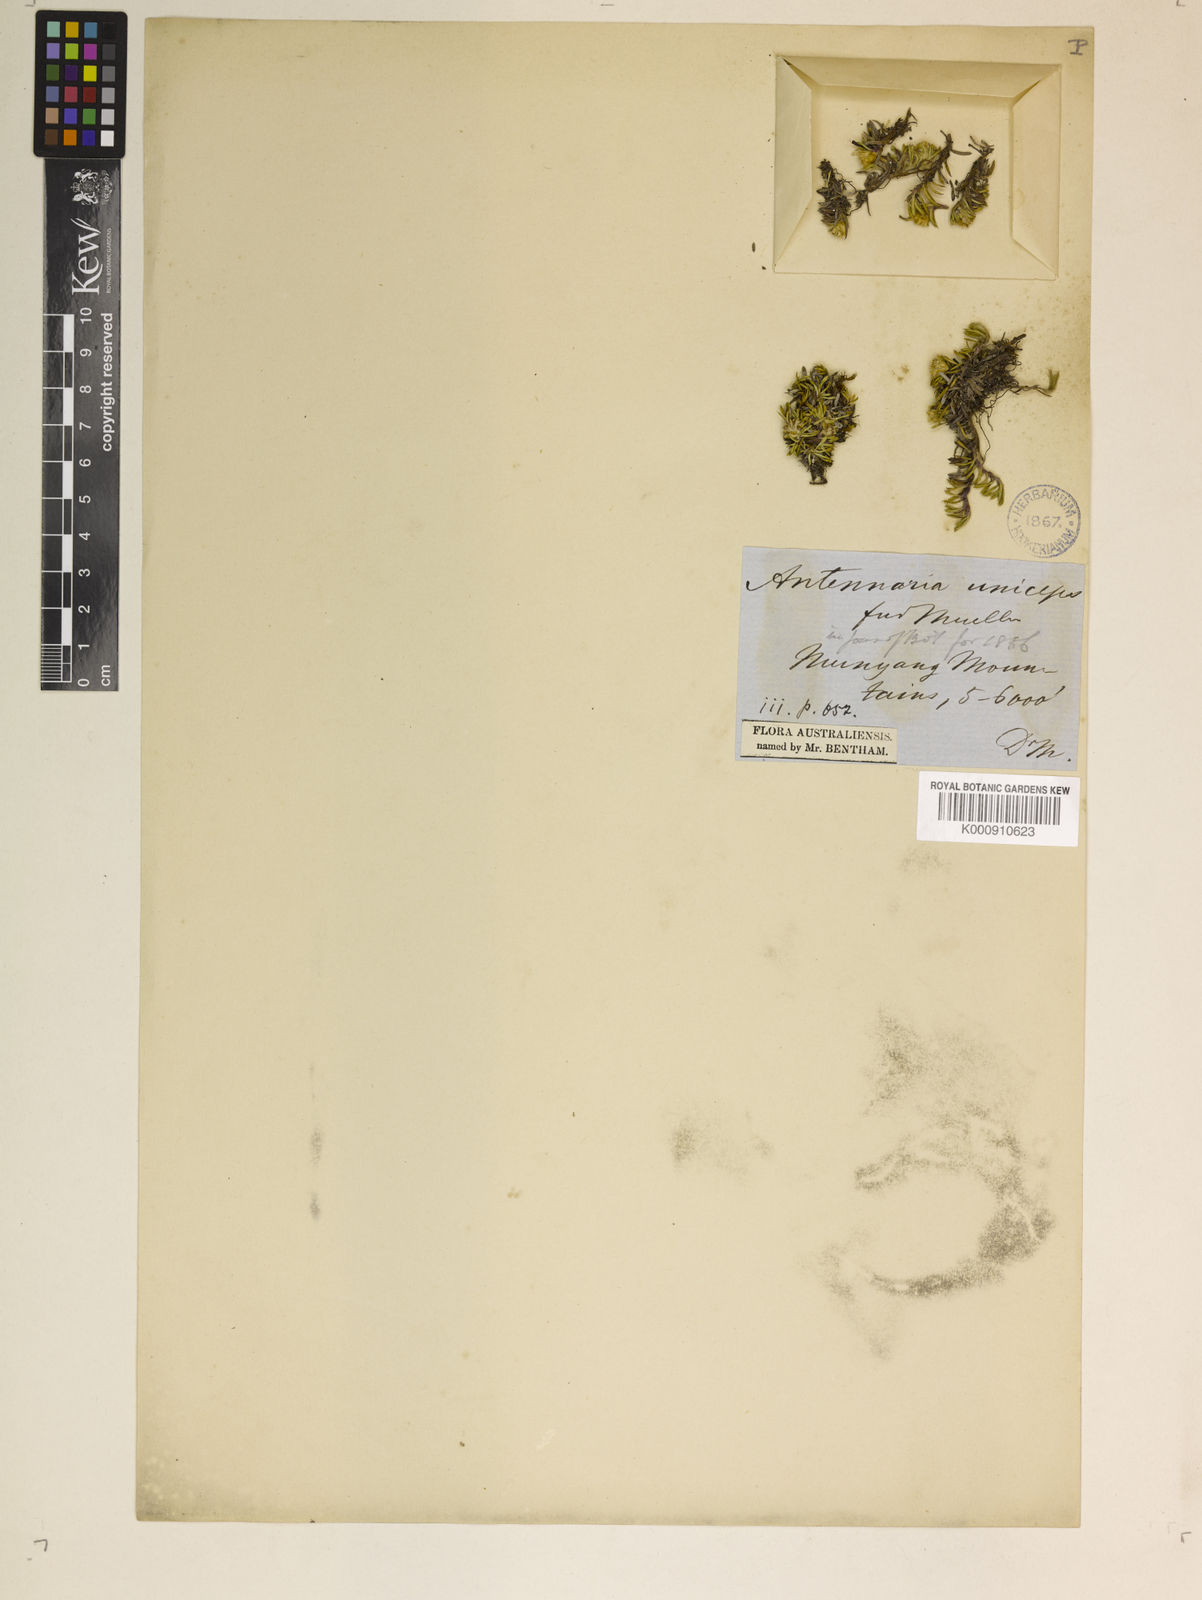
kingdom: Plantae
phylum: Tracheophyta
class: Magnoliopsida
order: Asterales
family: Asteraceae
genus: Parantennaria
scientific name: Parantennaria uniceps
